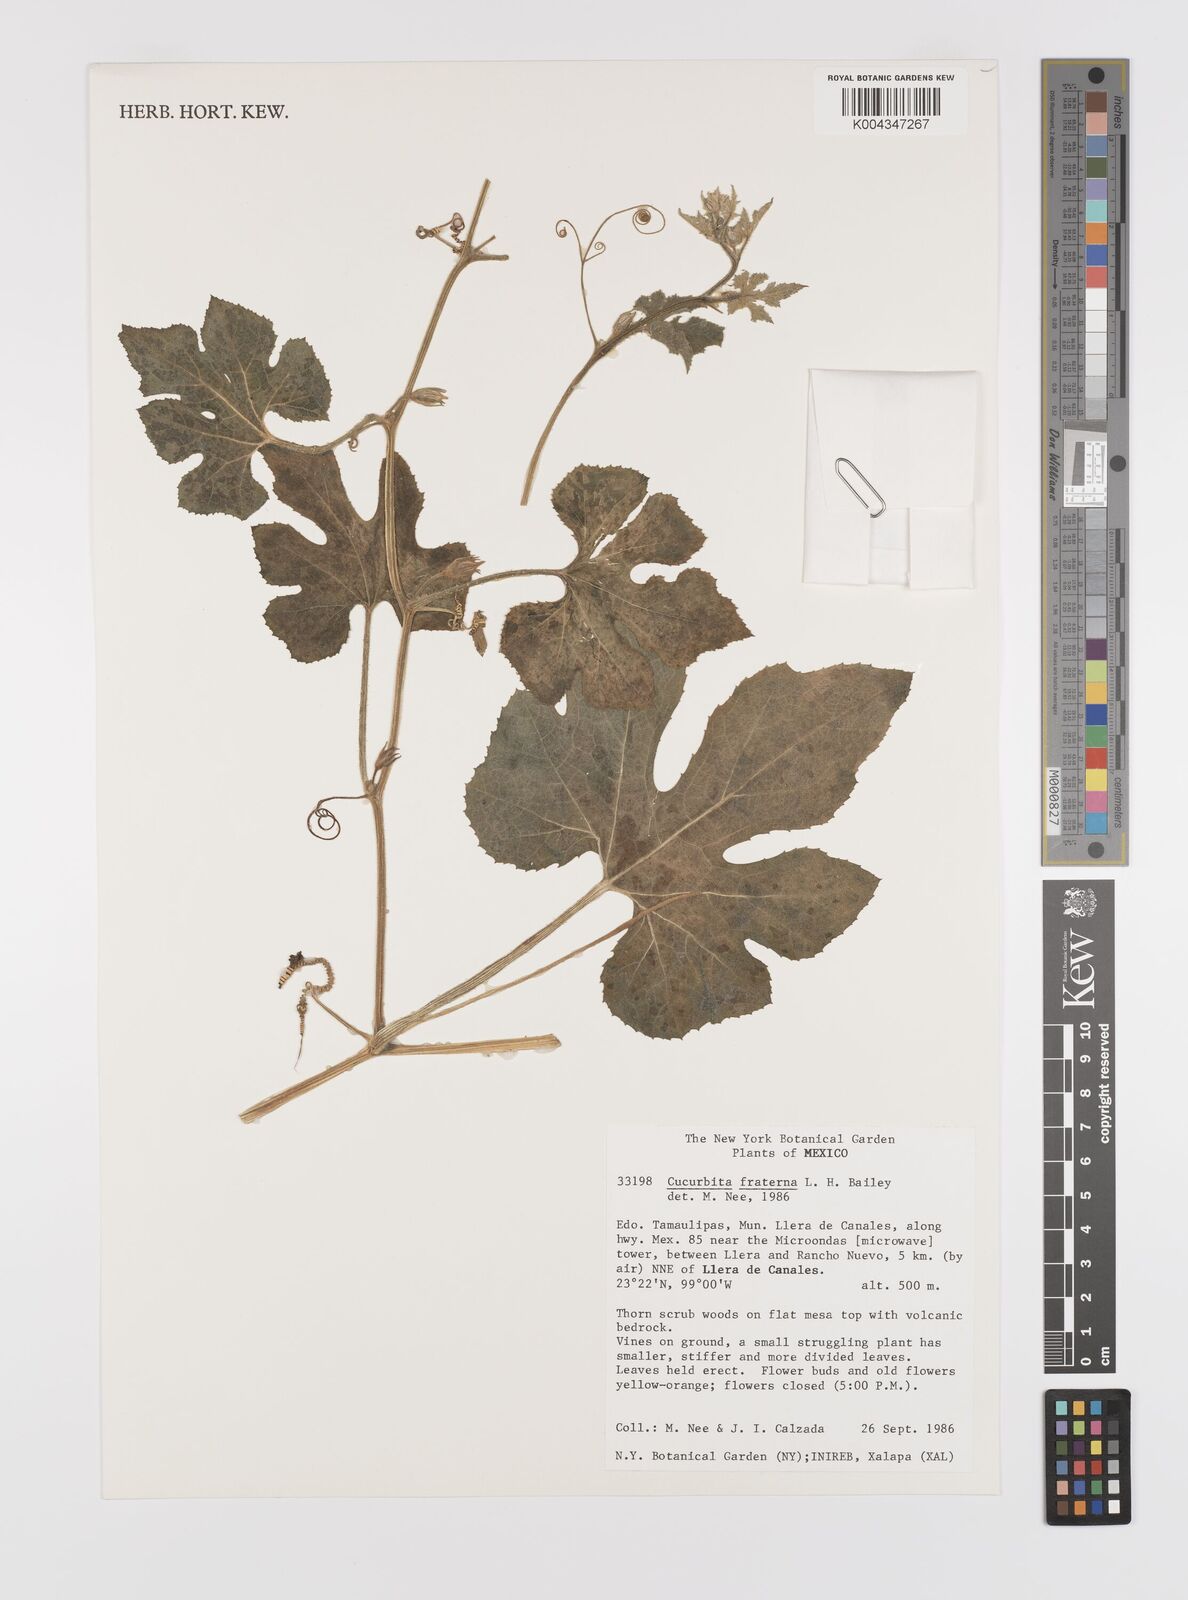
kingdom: Plantae
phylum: Tracheophyta
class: Magnoliopsida
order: Cucurbitales
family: Cucurbitaceae
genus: Cucurbita
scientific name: Cucurbita melopepo
